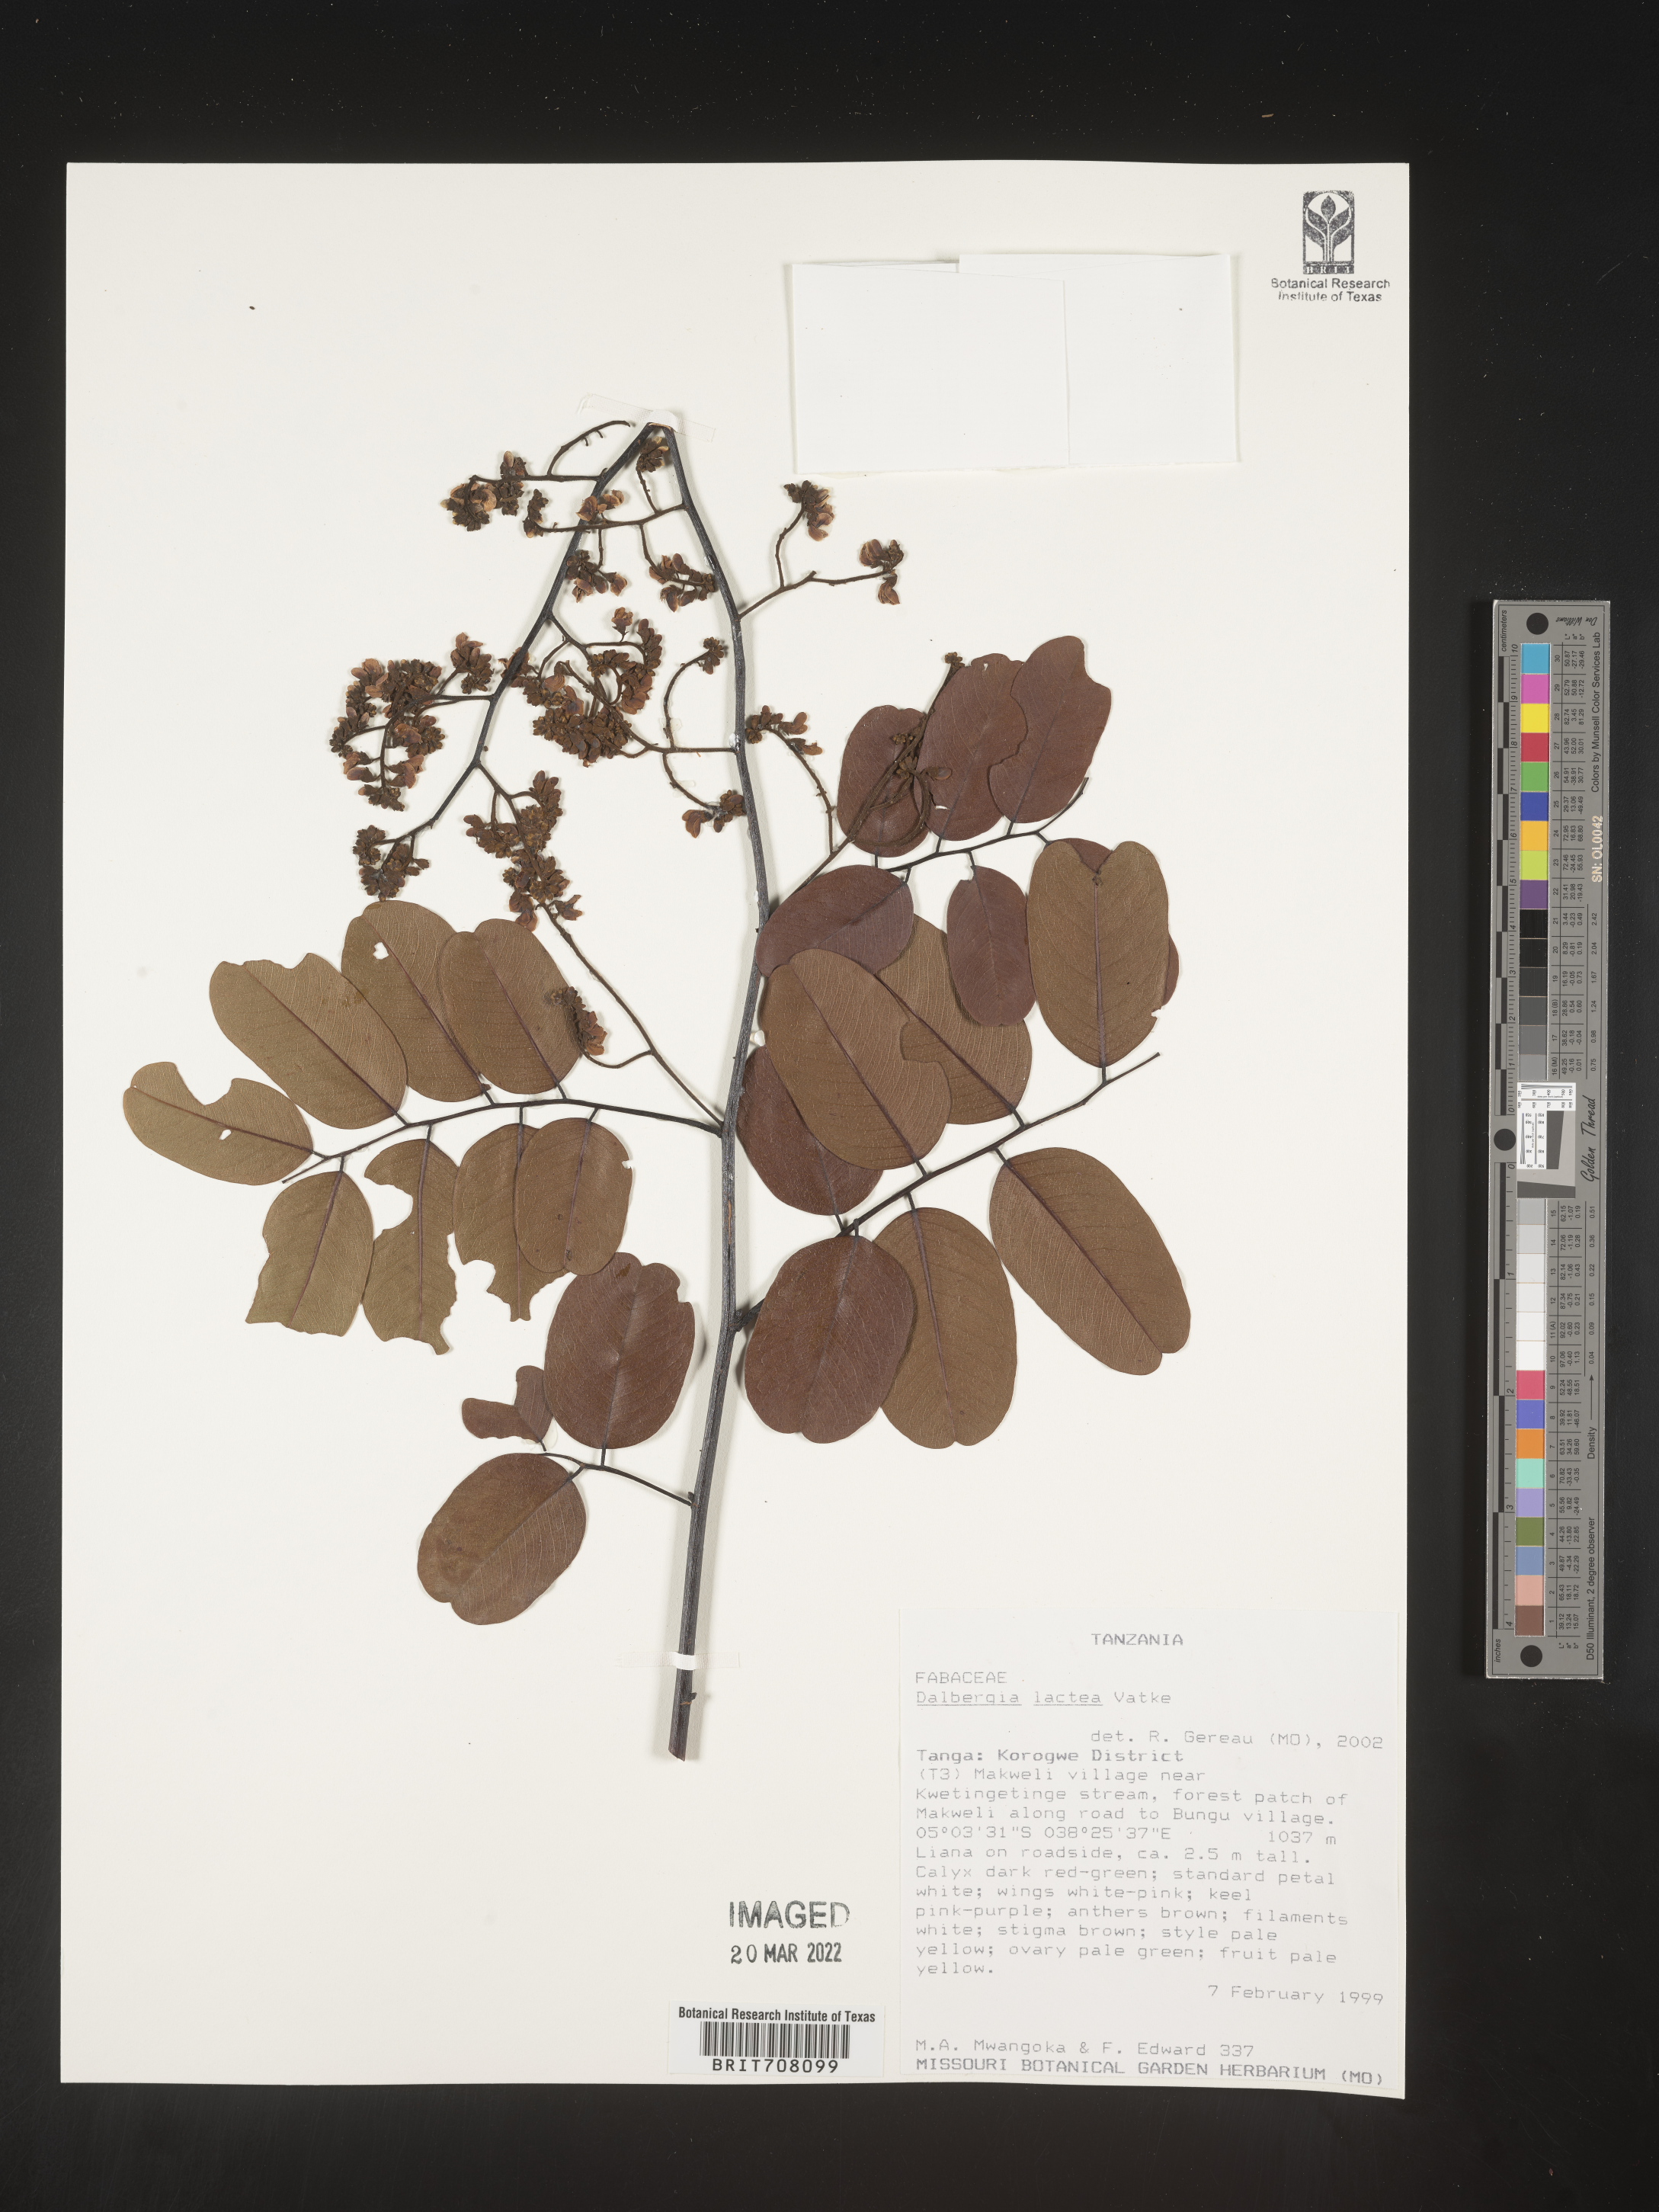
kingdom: Plantae
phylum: Tracheophyta
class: Magnoliopsida
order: Fabales
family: Fabaceae
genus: Dalbergia
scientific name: Dalbergia
